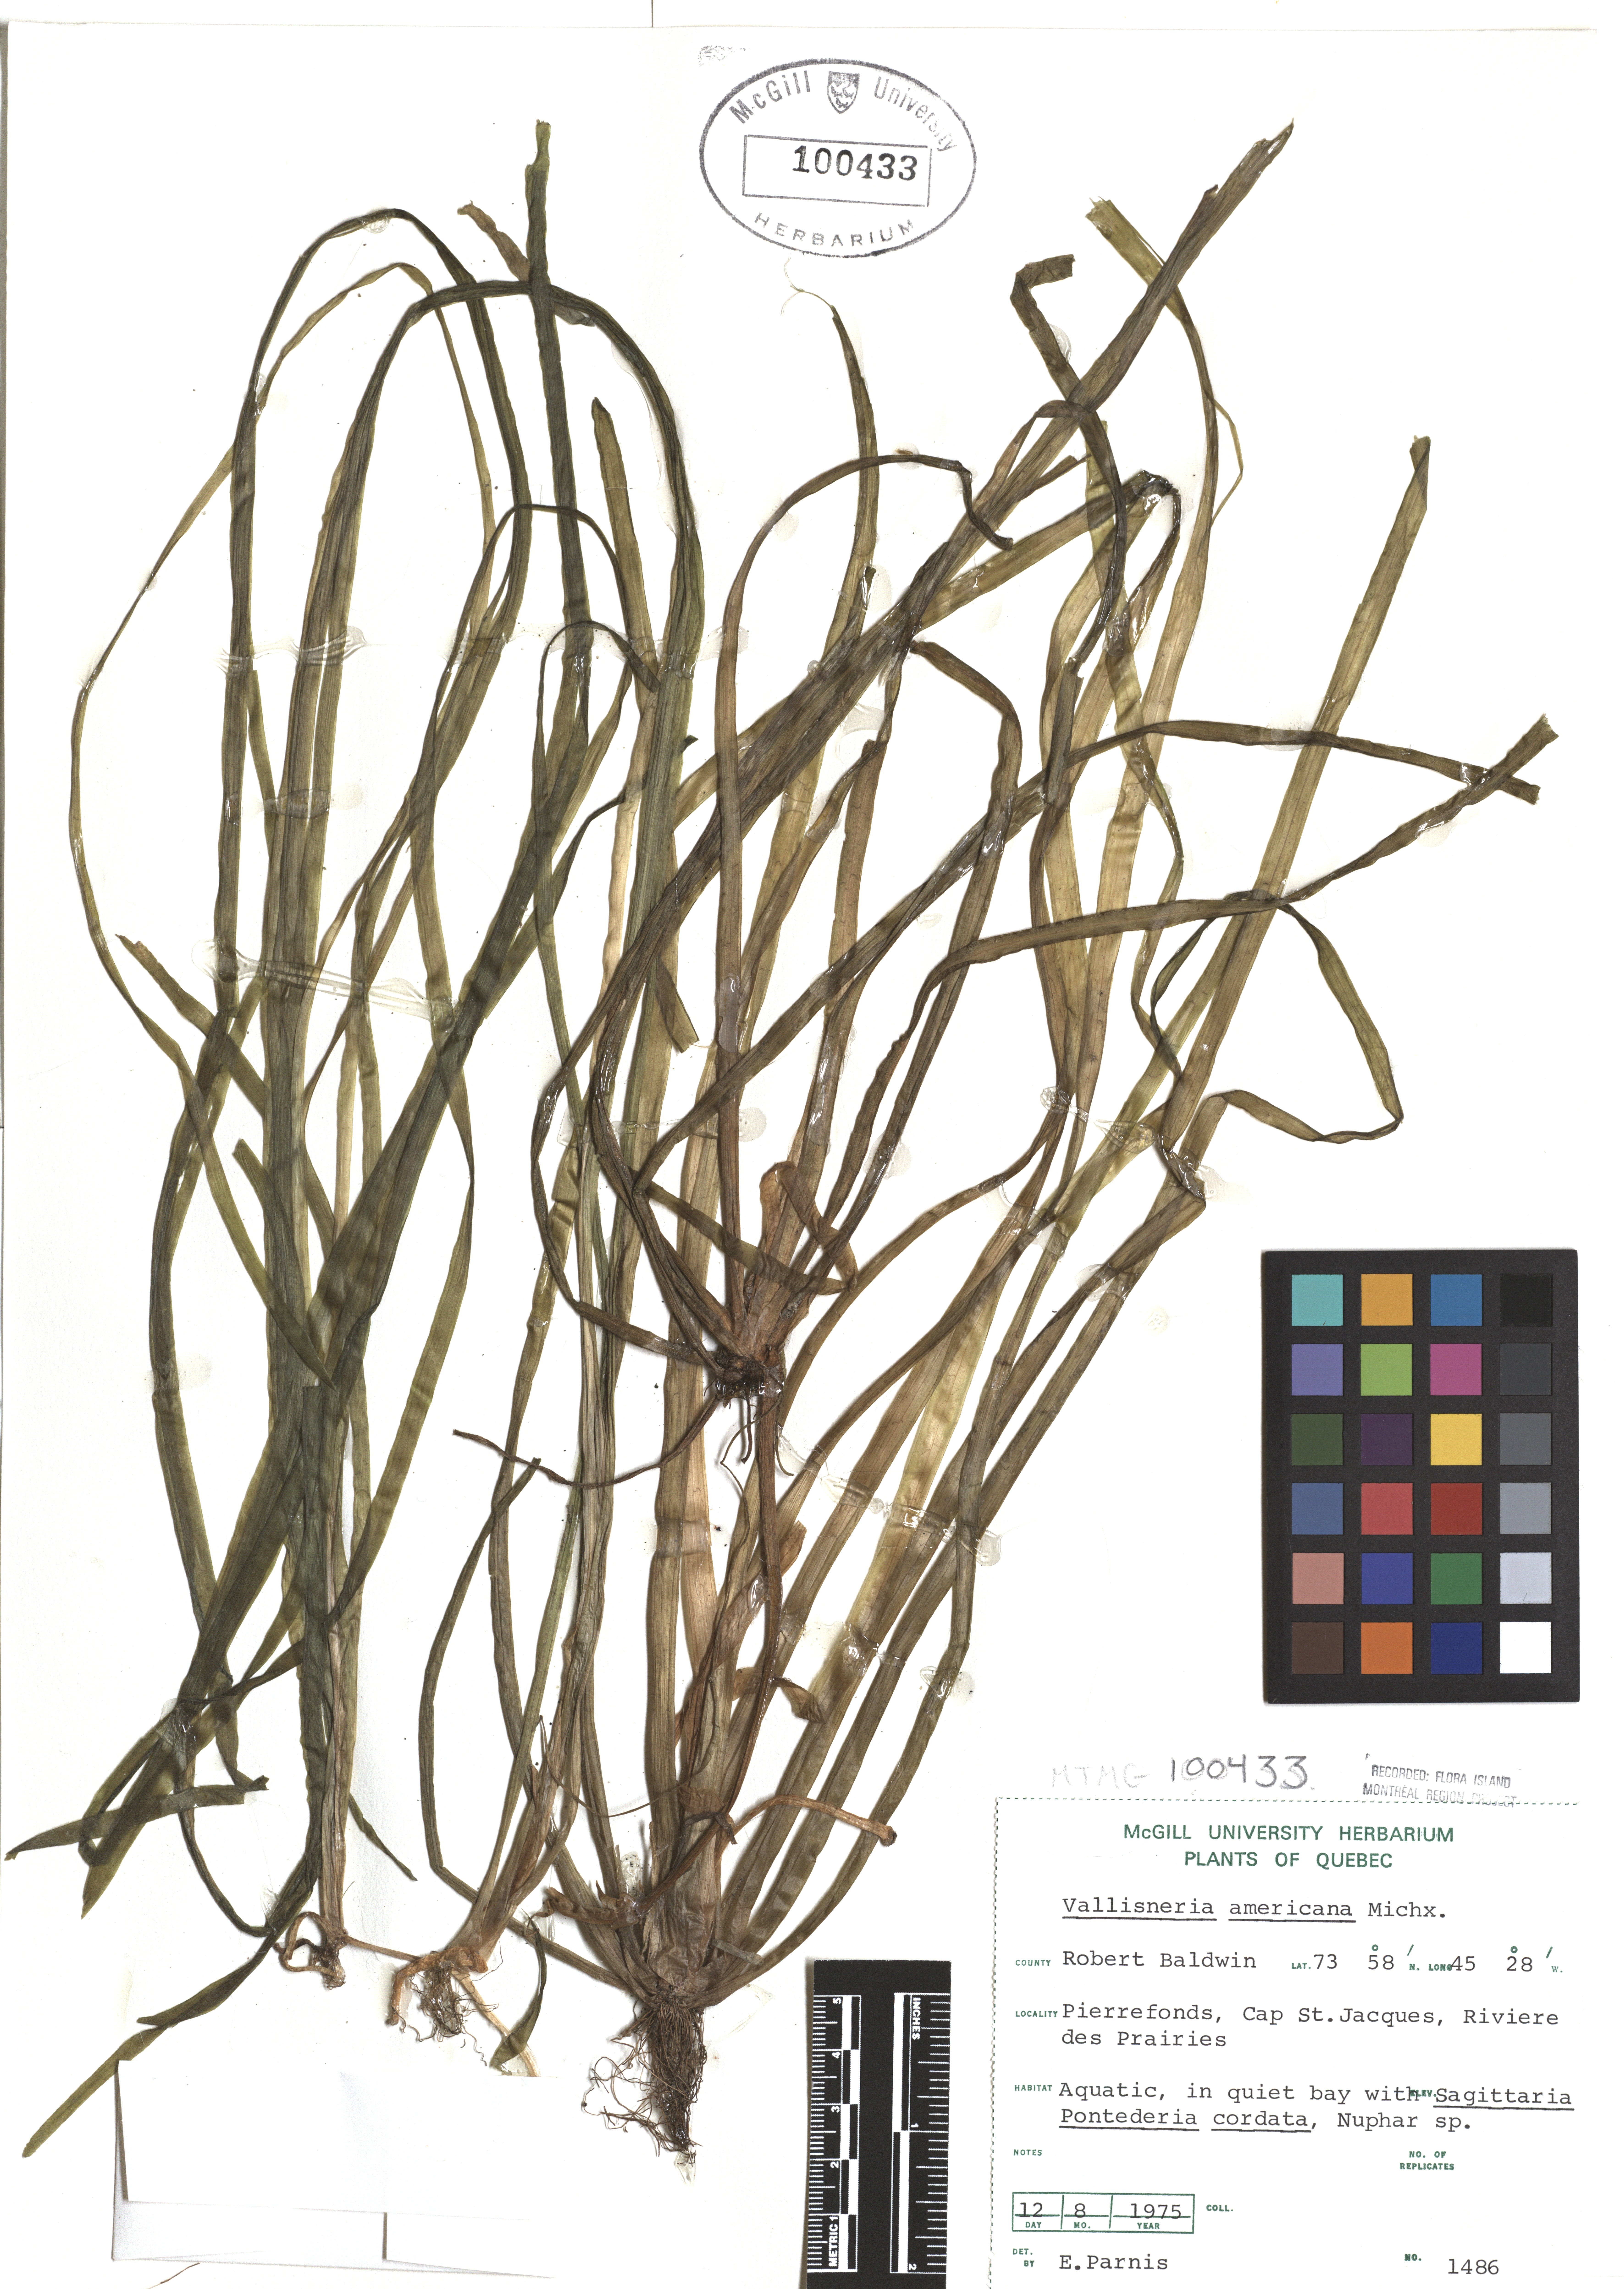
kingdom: Plantae
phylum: Tracheophyta
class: Liliopsida
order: Alismatales
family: Hydrocharitaceae
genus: Vallisneria
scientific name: Vallisneria americana
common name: American eelgrass
